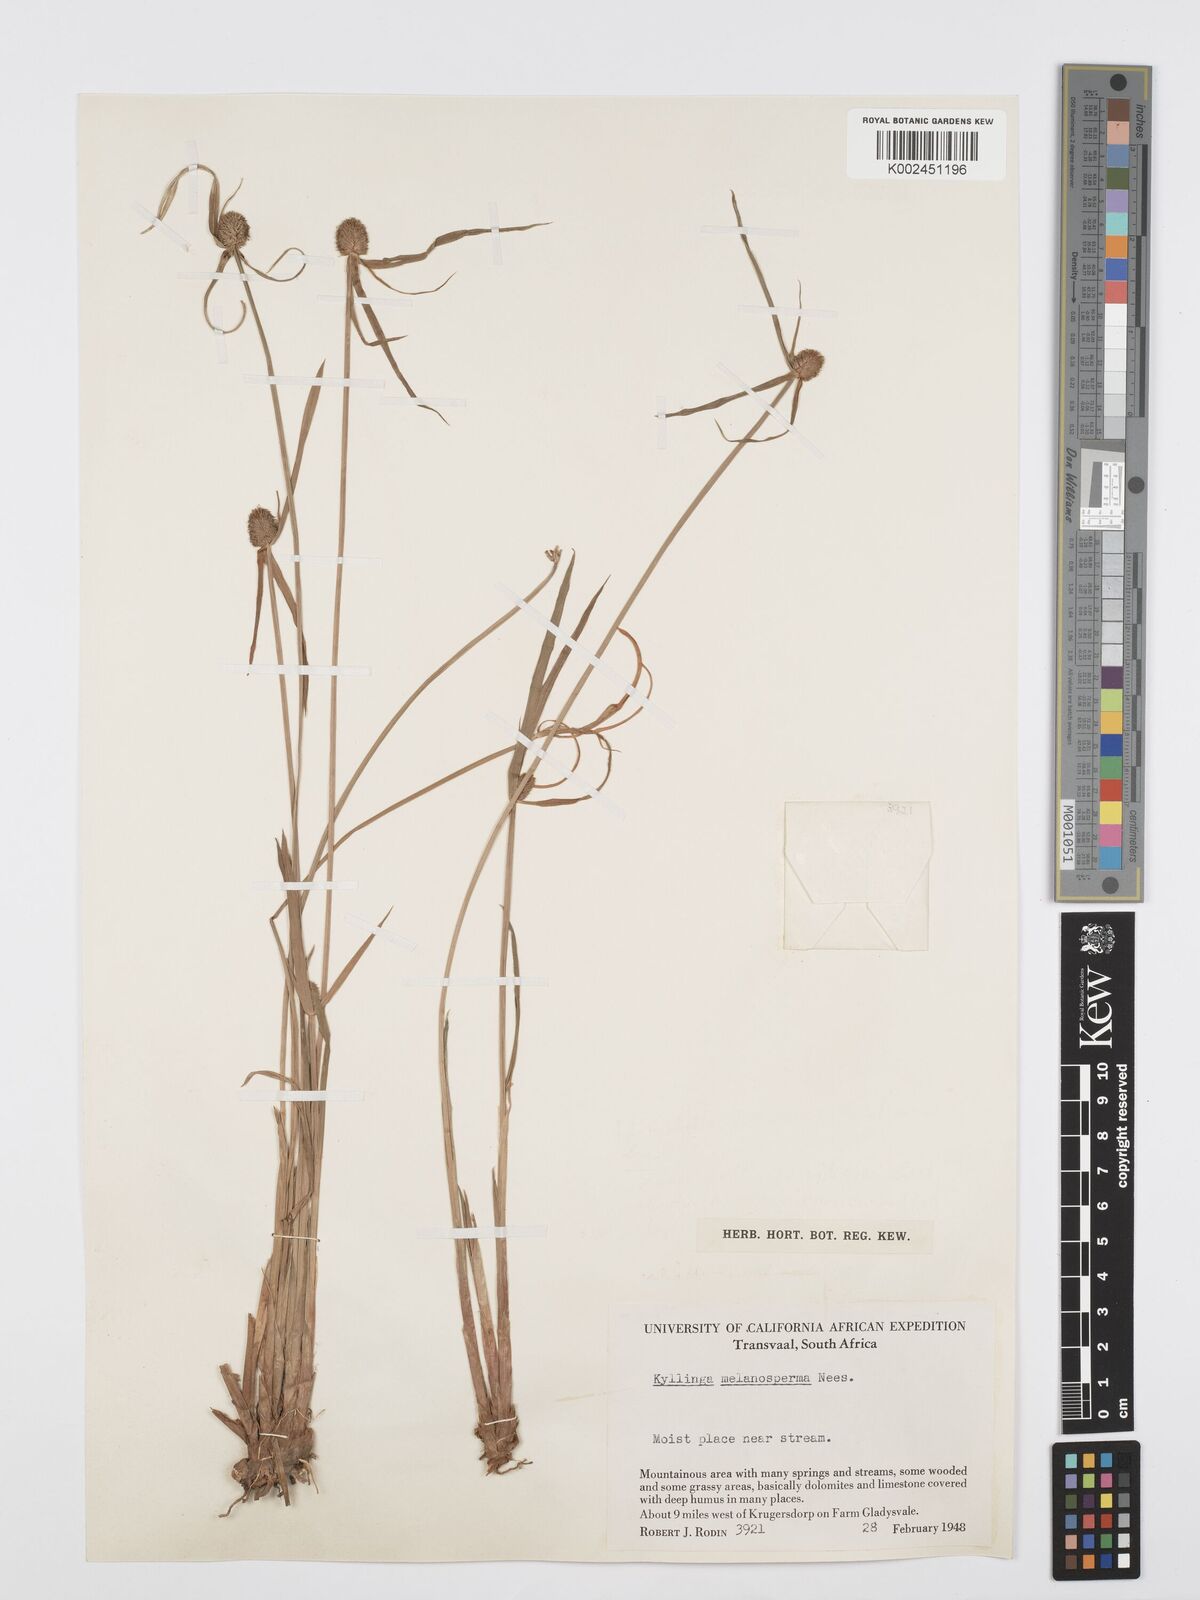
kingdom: Plantae
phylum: Tracheophyta
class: Liliopsida
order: Poales
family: Cyperaceae
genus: Cyperus
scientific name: Cyperus melanospermus
